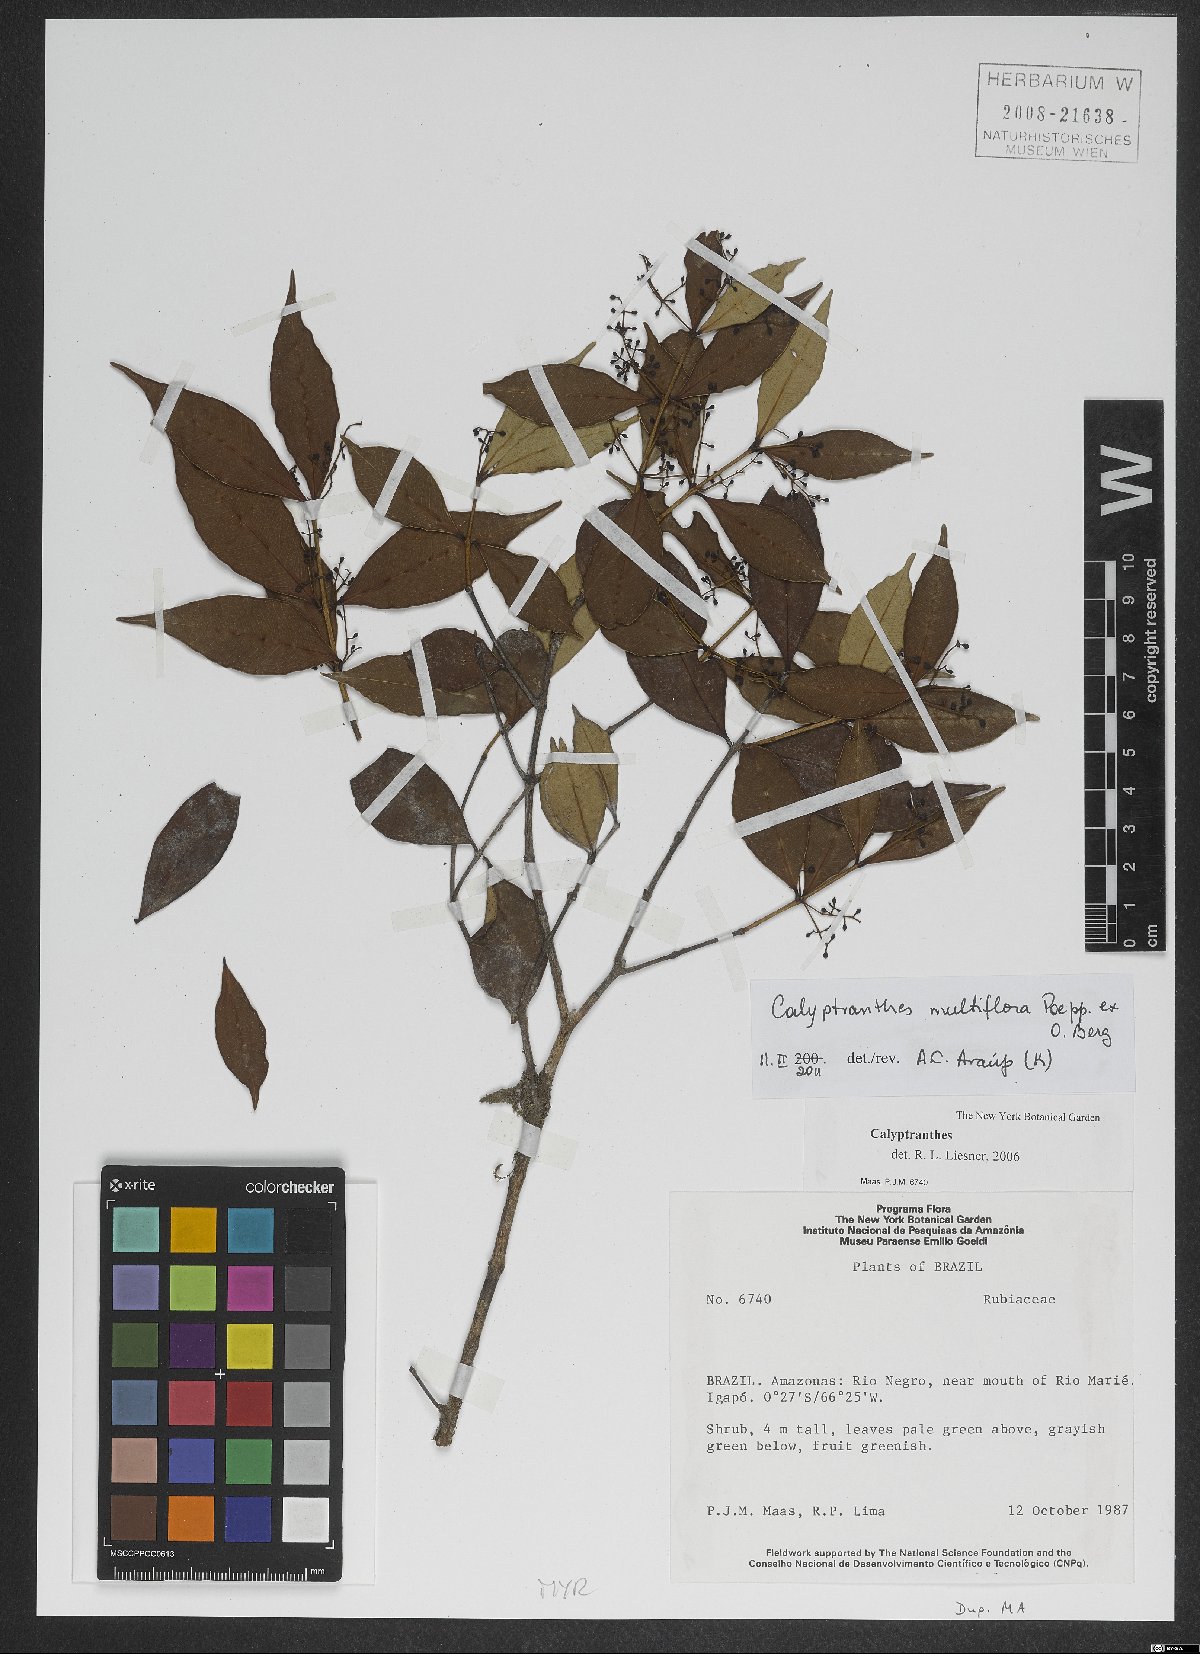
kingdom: Plantae
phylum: Tracheophyta
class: Magnoliopsida
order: Myrtales
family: Myrtaceae
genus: Myrcia
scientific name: Myrcia aulomyrcioides
